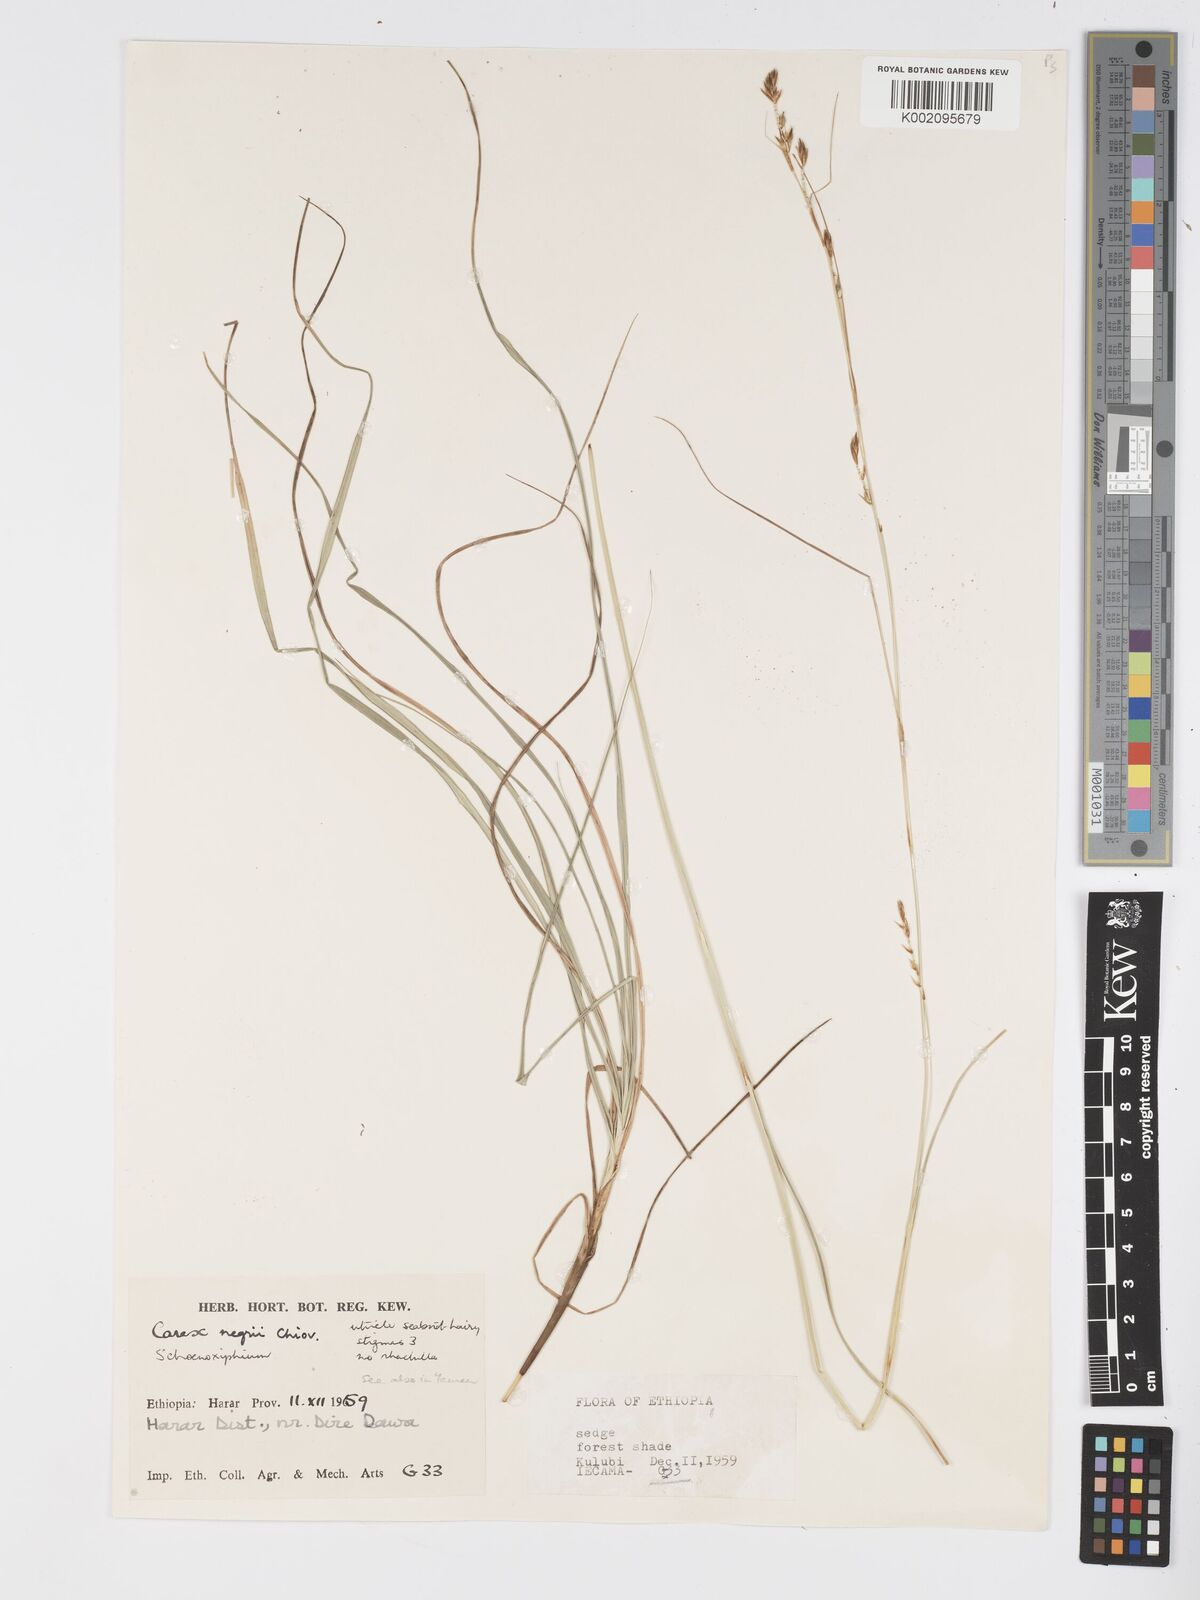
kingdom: Plantae
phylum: Tracheophyta
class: Liliopsida
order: Poales
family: Cyperaceae
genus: Carex
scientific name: Carex negrii
